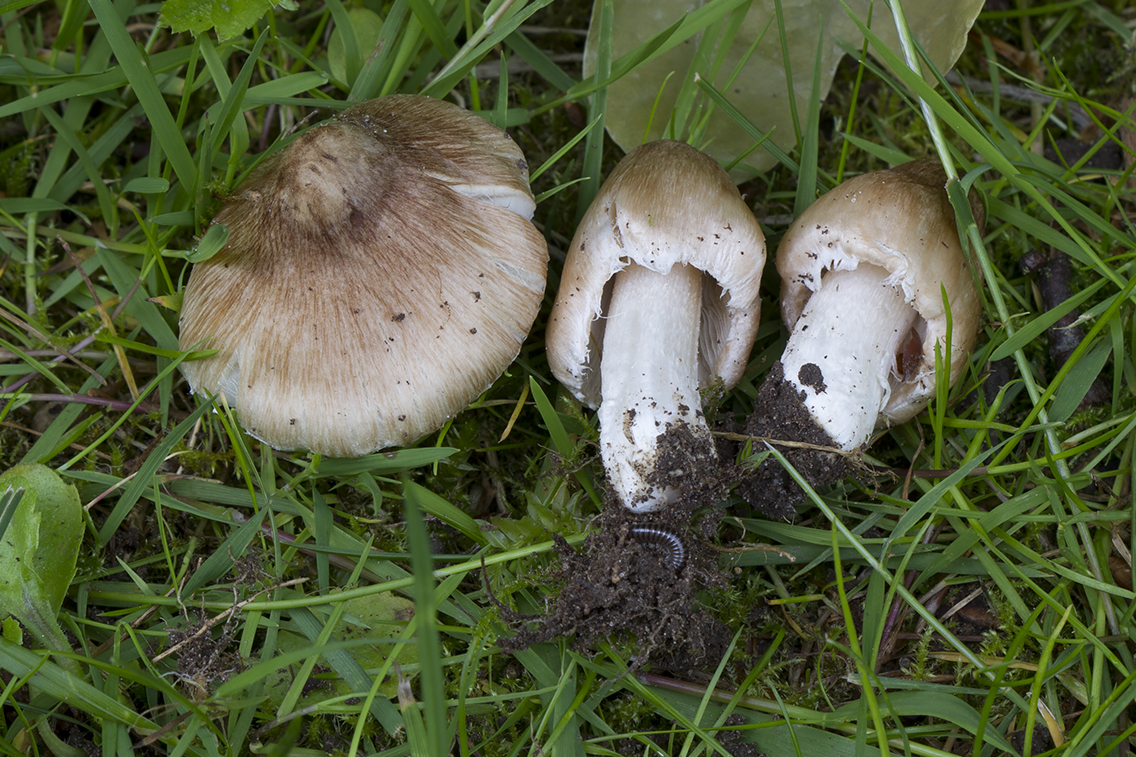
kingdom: Fungi
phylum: Basidiomycota
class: Agaricomycetes
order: Agaricales
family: Inocybaceae
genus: Pseudosperma
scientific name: Pseudosperma obsoletum
